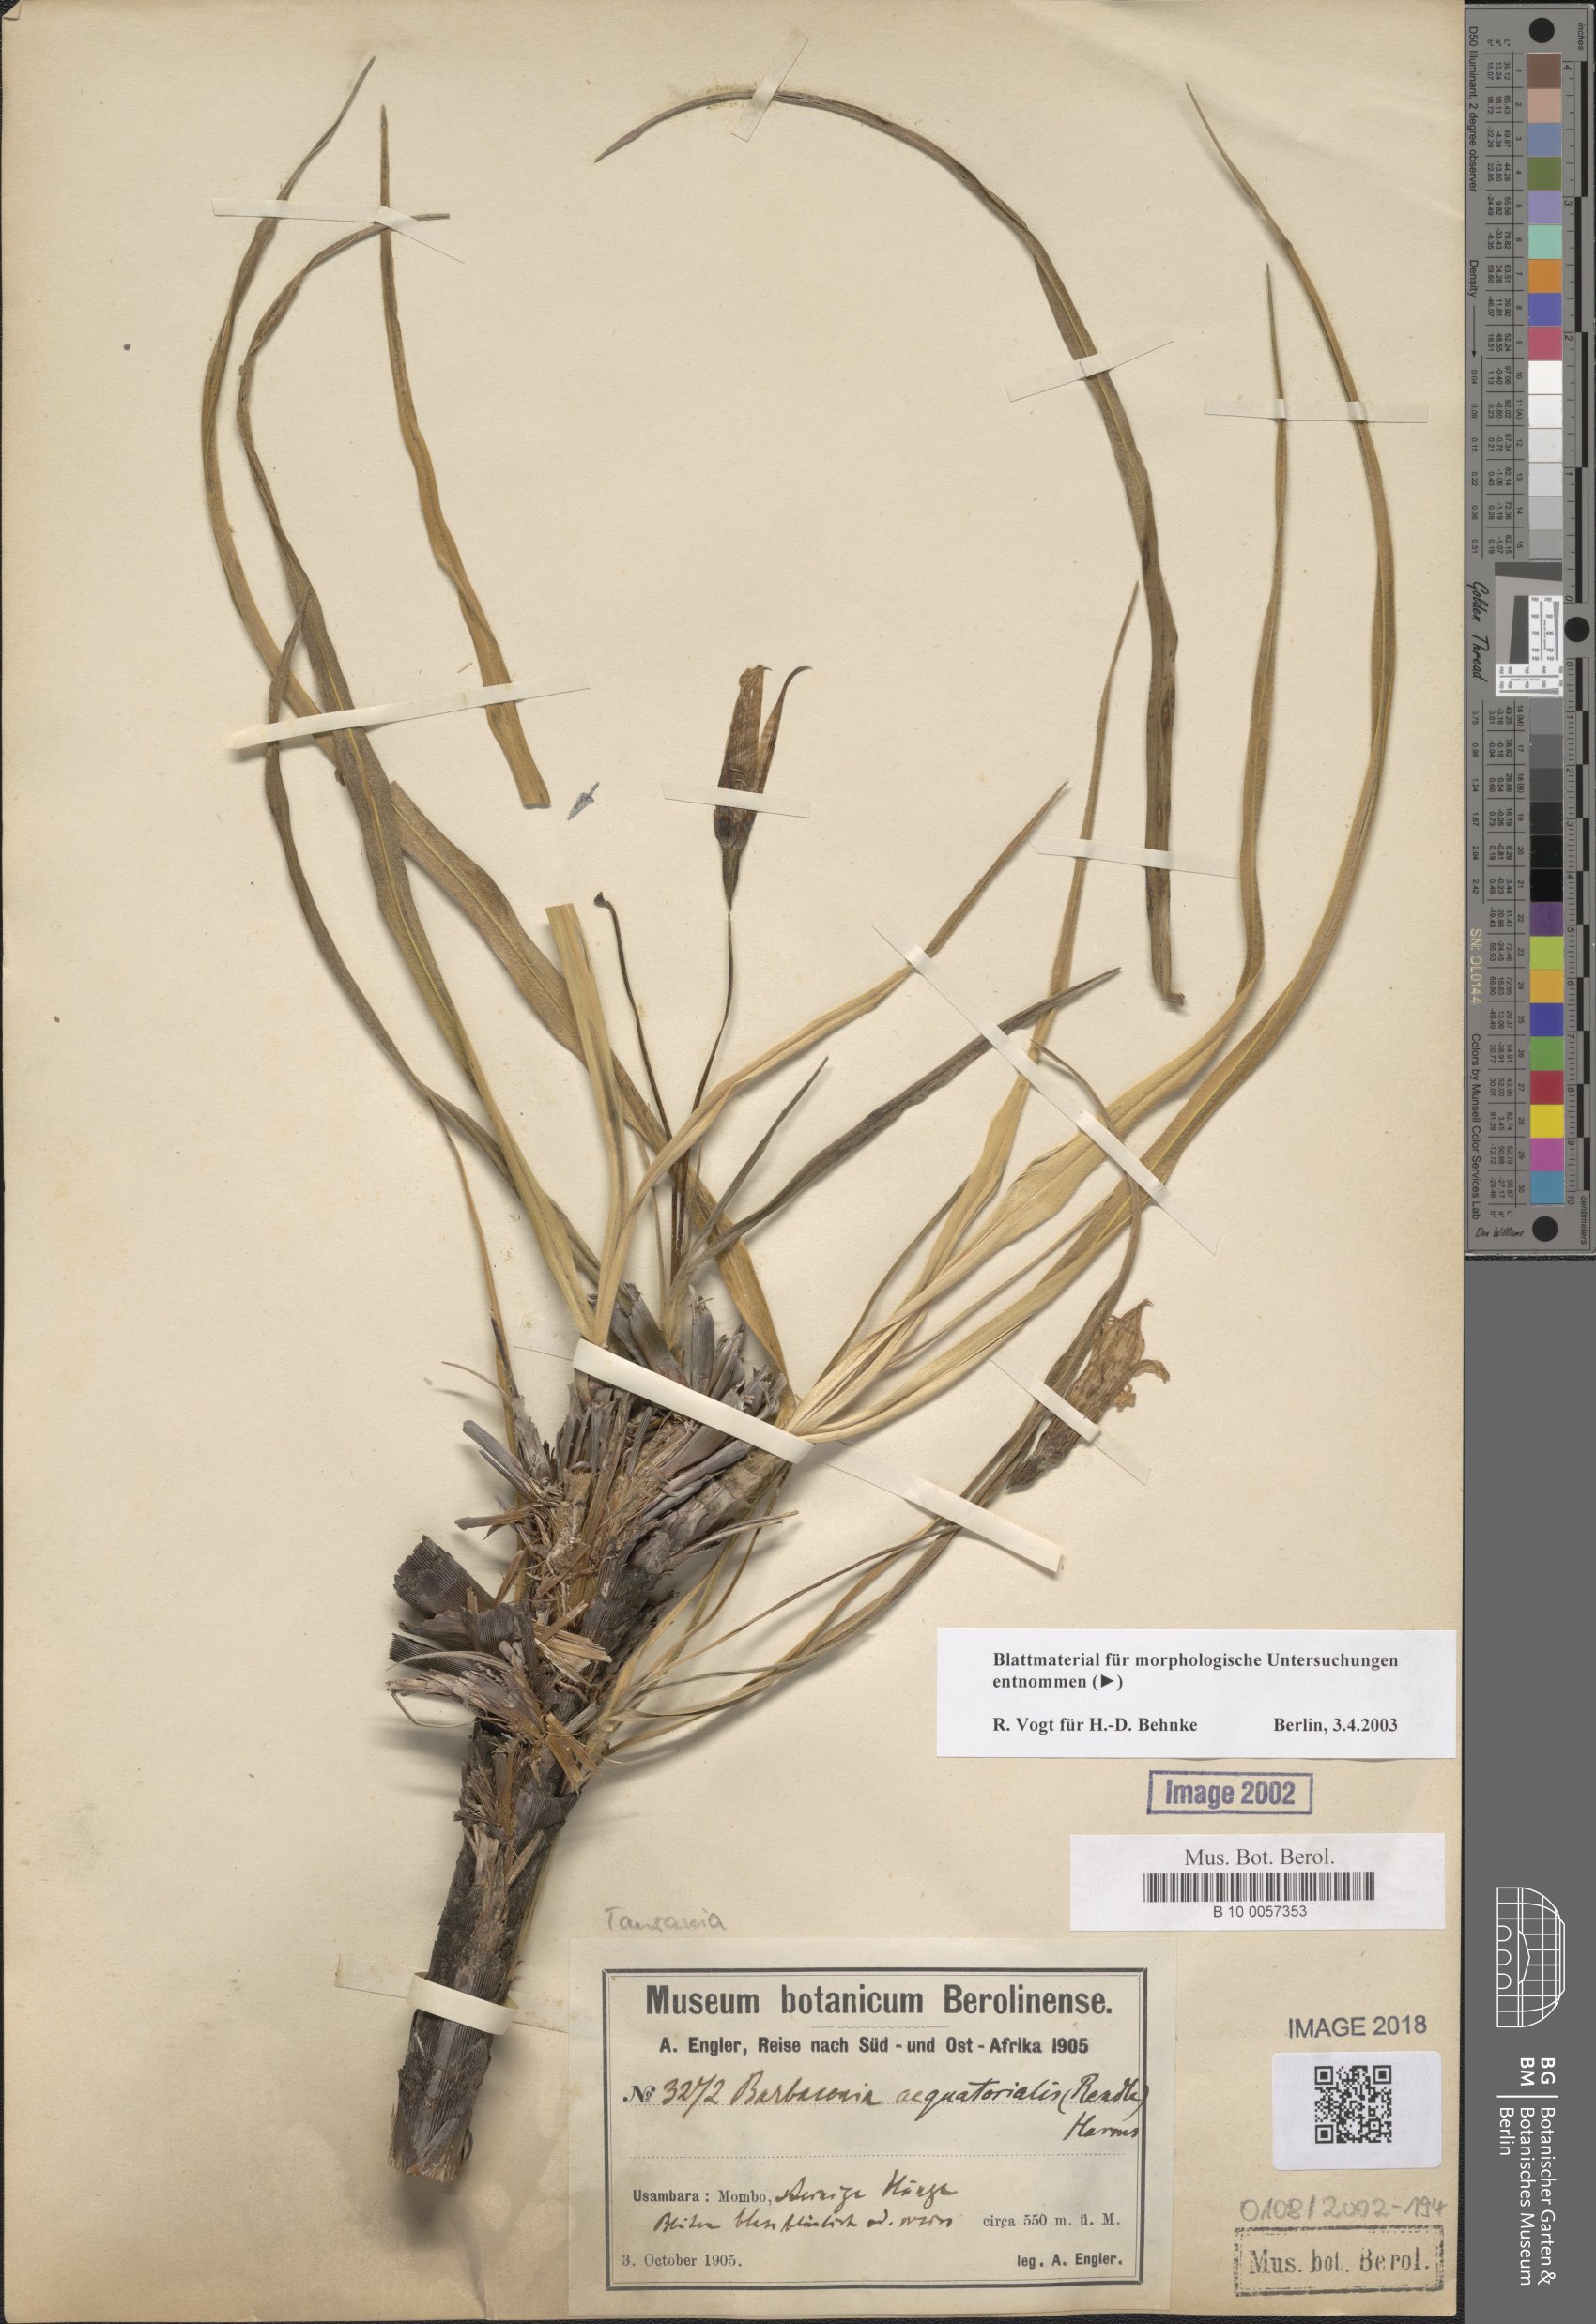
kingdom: Plantae
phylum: Tracheophyta
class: Liliopsida
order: Pandanales
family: Velloziaceae
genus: Xerophyta
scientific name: Xerophyta spekei
